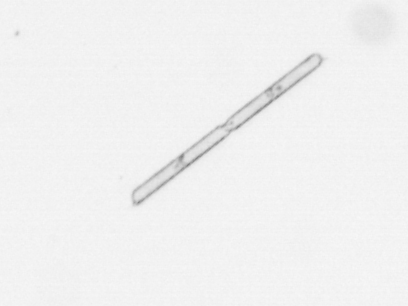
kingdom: Chromista
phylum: Ochrophyta
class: Bacillariophyceae
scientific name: Bacillariophyceae
